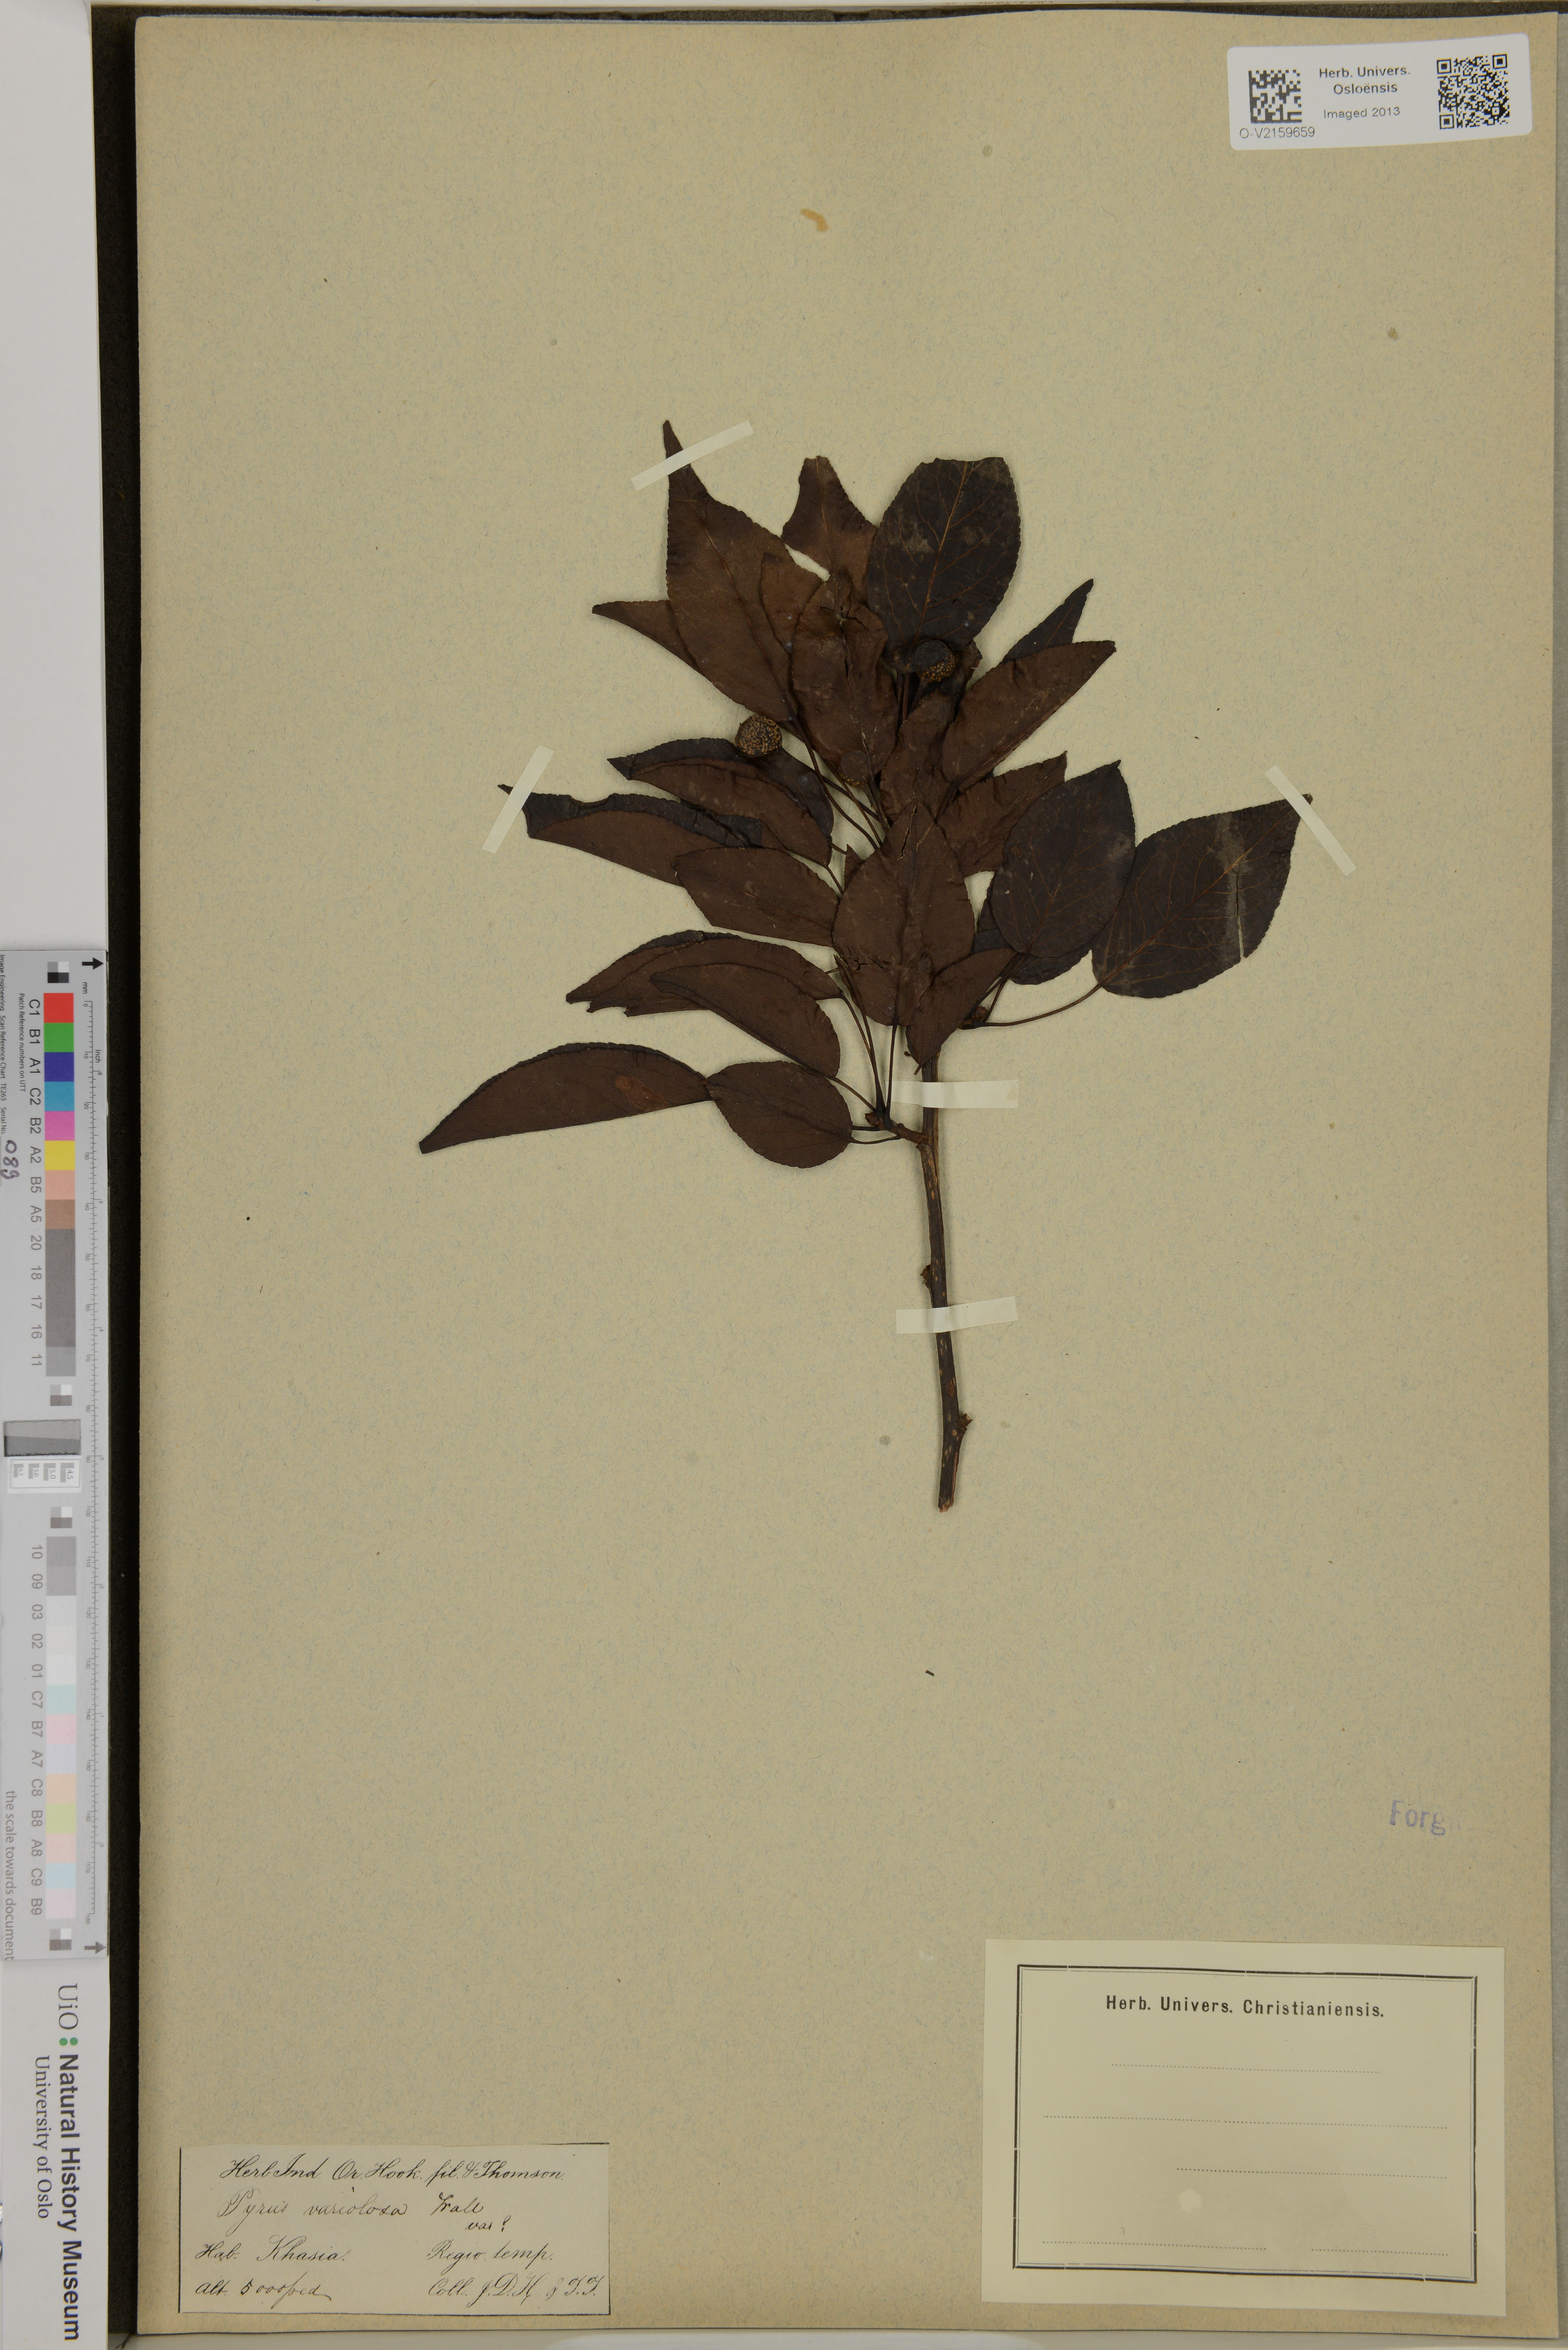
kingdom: Plantae
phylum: Tracheophyta
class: Magnoliopsida
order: Rosales
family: Rosaceae
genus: Pyrus
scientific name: Pyrus pashia
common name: Himalayan pear
